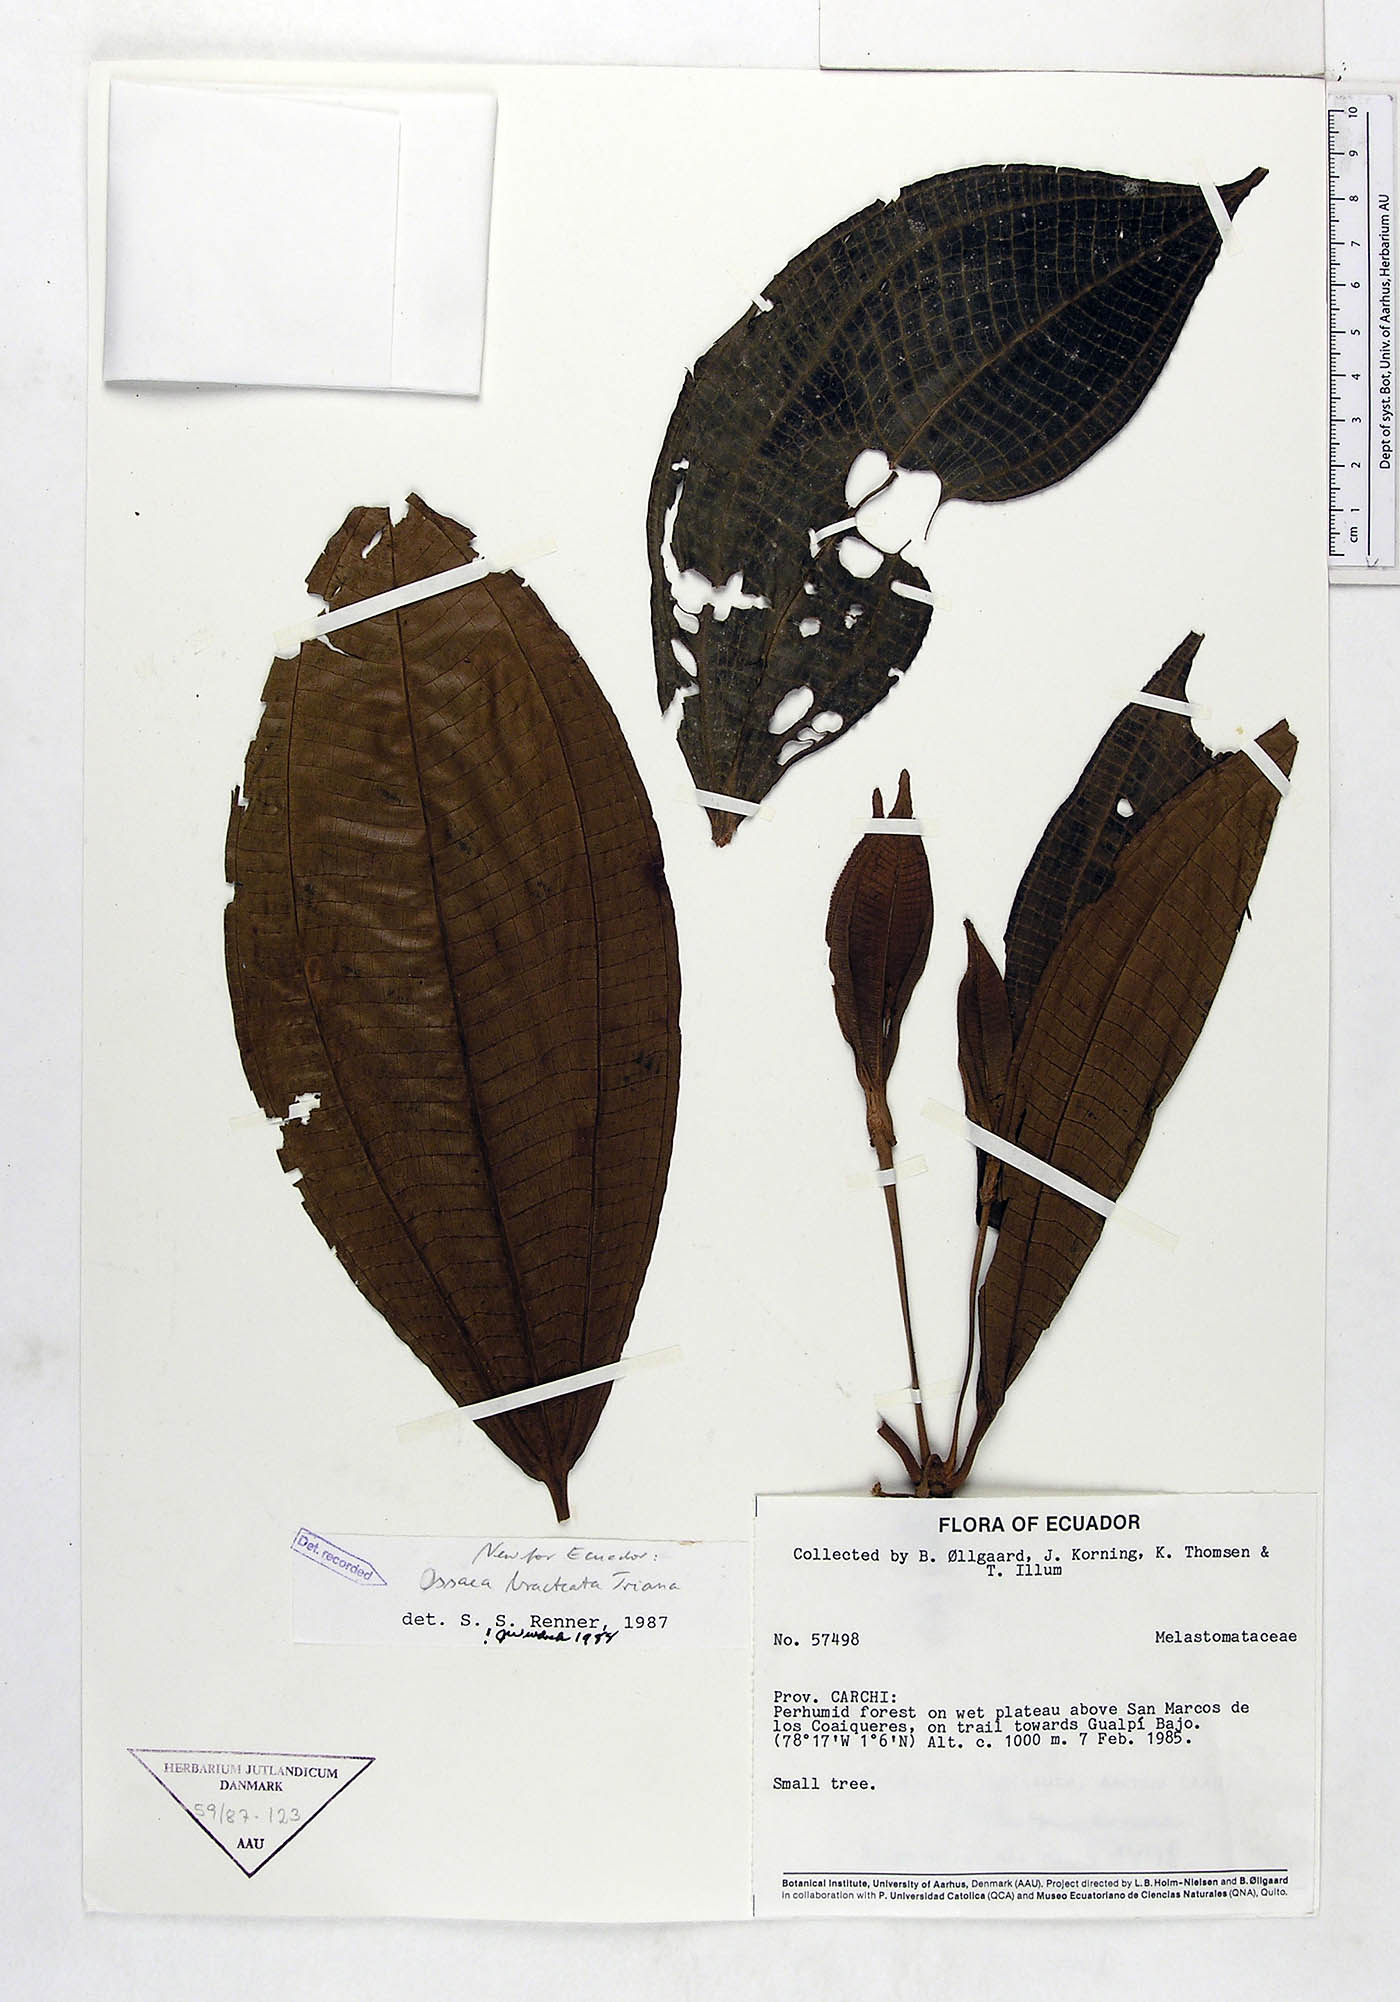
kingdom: Plantae
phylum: Tracheophyta
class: Magnoliopsida
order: Myrtales
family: Melastomataceae
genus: Miconia
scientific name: Miconia bractiflora
